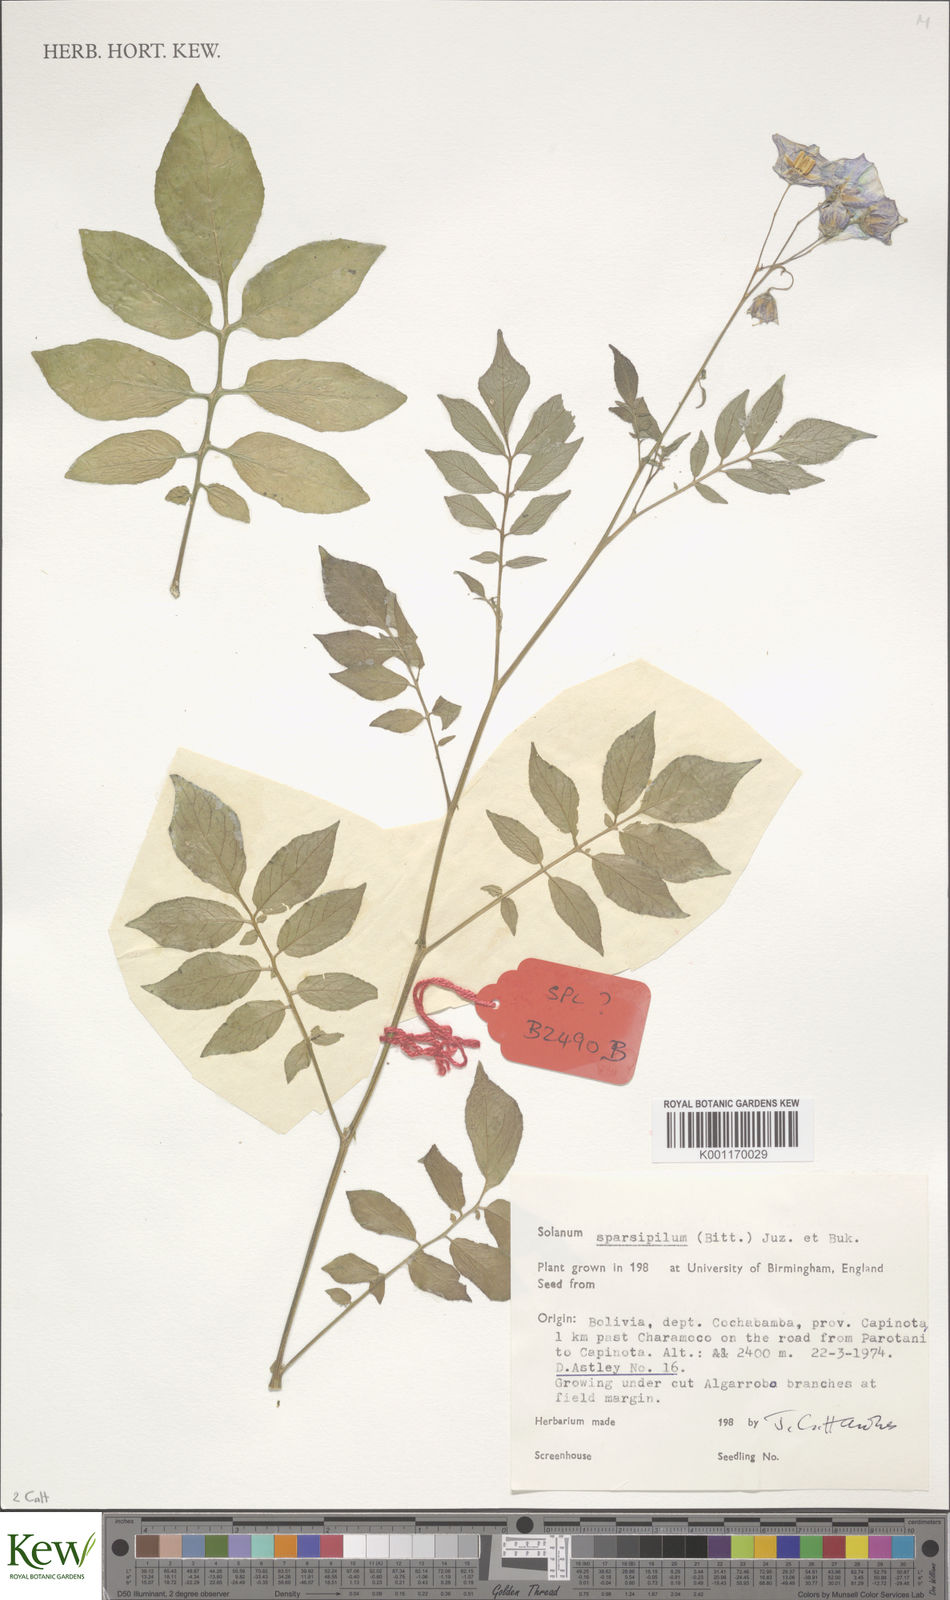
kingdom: Plantae
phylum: Tracheophyta
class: Magnoliopsida
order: Solanales
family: Solanaceae
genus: Solanum
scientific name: Solanum brevicaule
